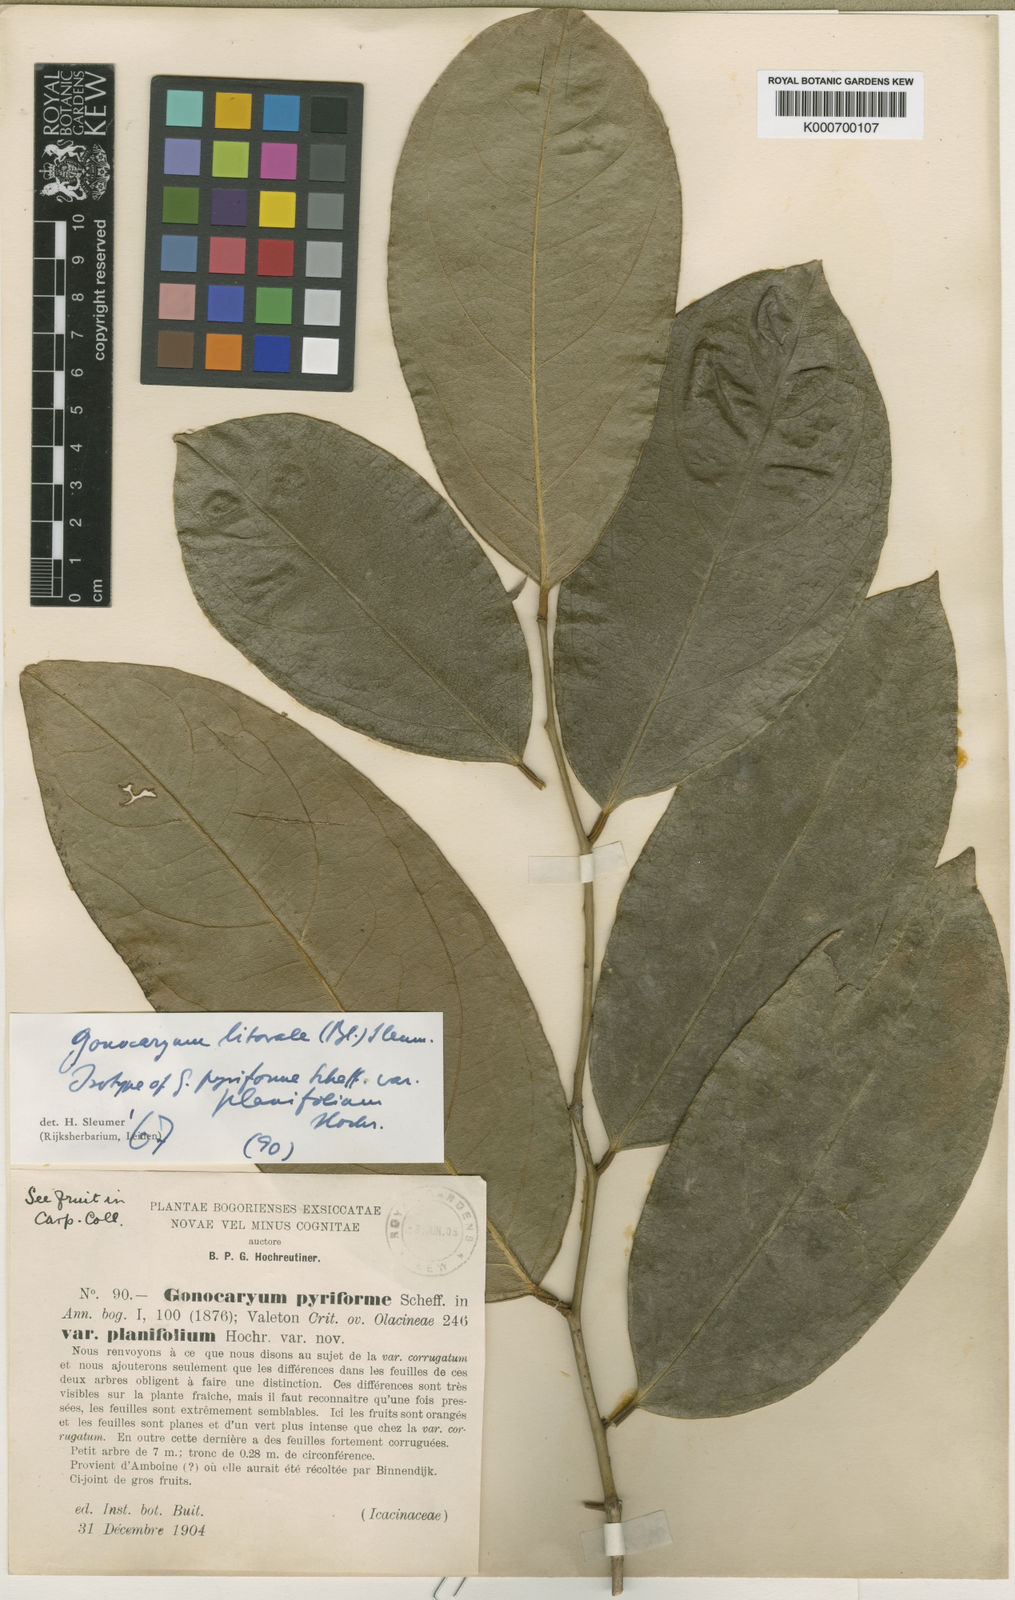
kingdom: Plantae
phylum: Tracheophyta
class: Magnoliopsida
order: Cardiopteridales
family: Cardiopteridaceae
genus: Gonocaryum
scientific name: Gonocaryum litorale
